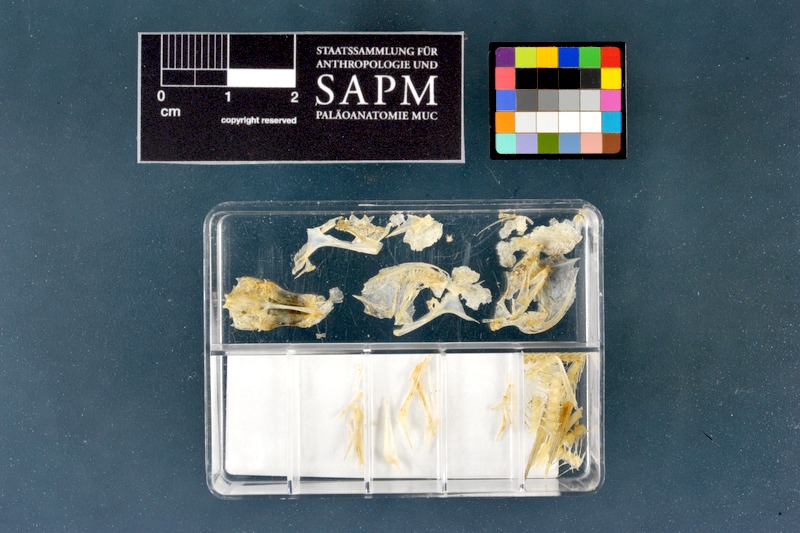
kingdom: Animalia
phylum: Chordata
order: Perciformes
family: Percidae
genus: Perca
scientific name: Perca fluviatilis
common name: Perch
